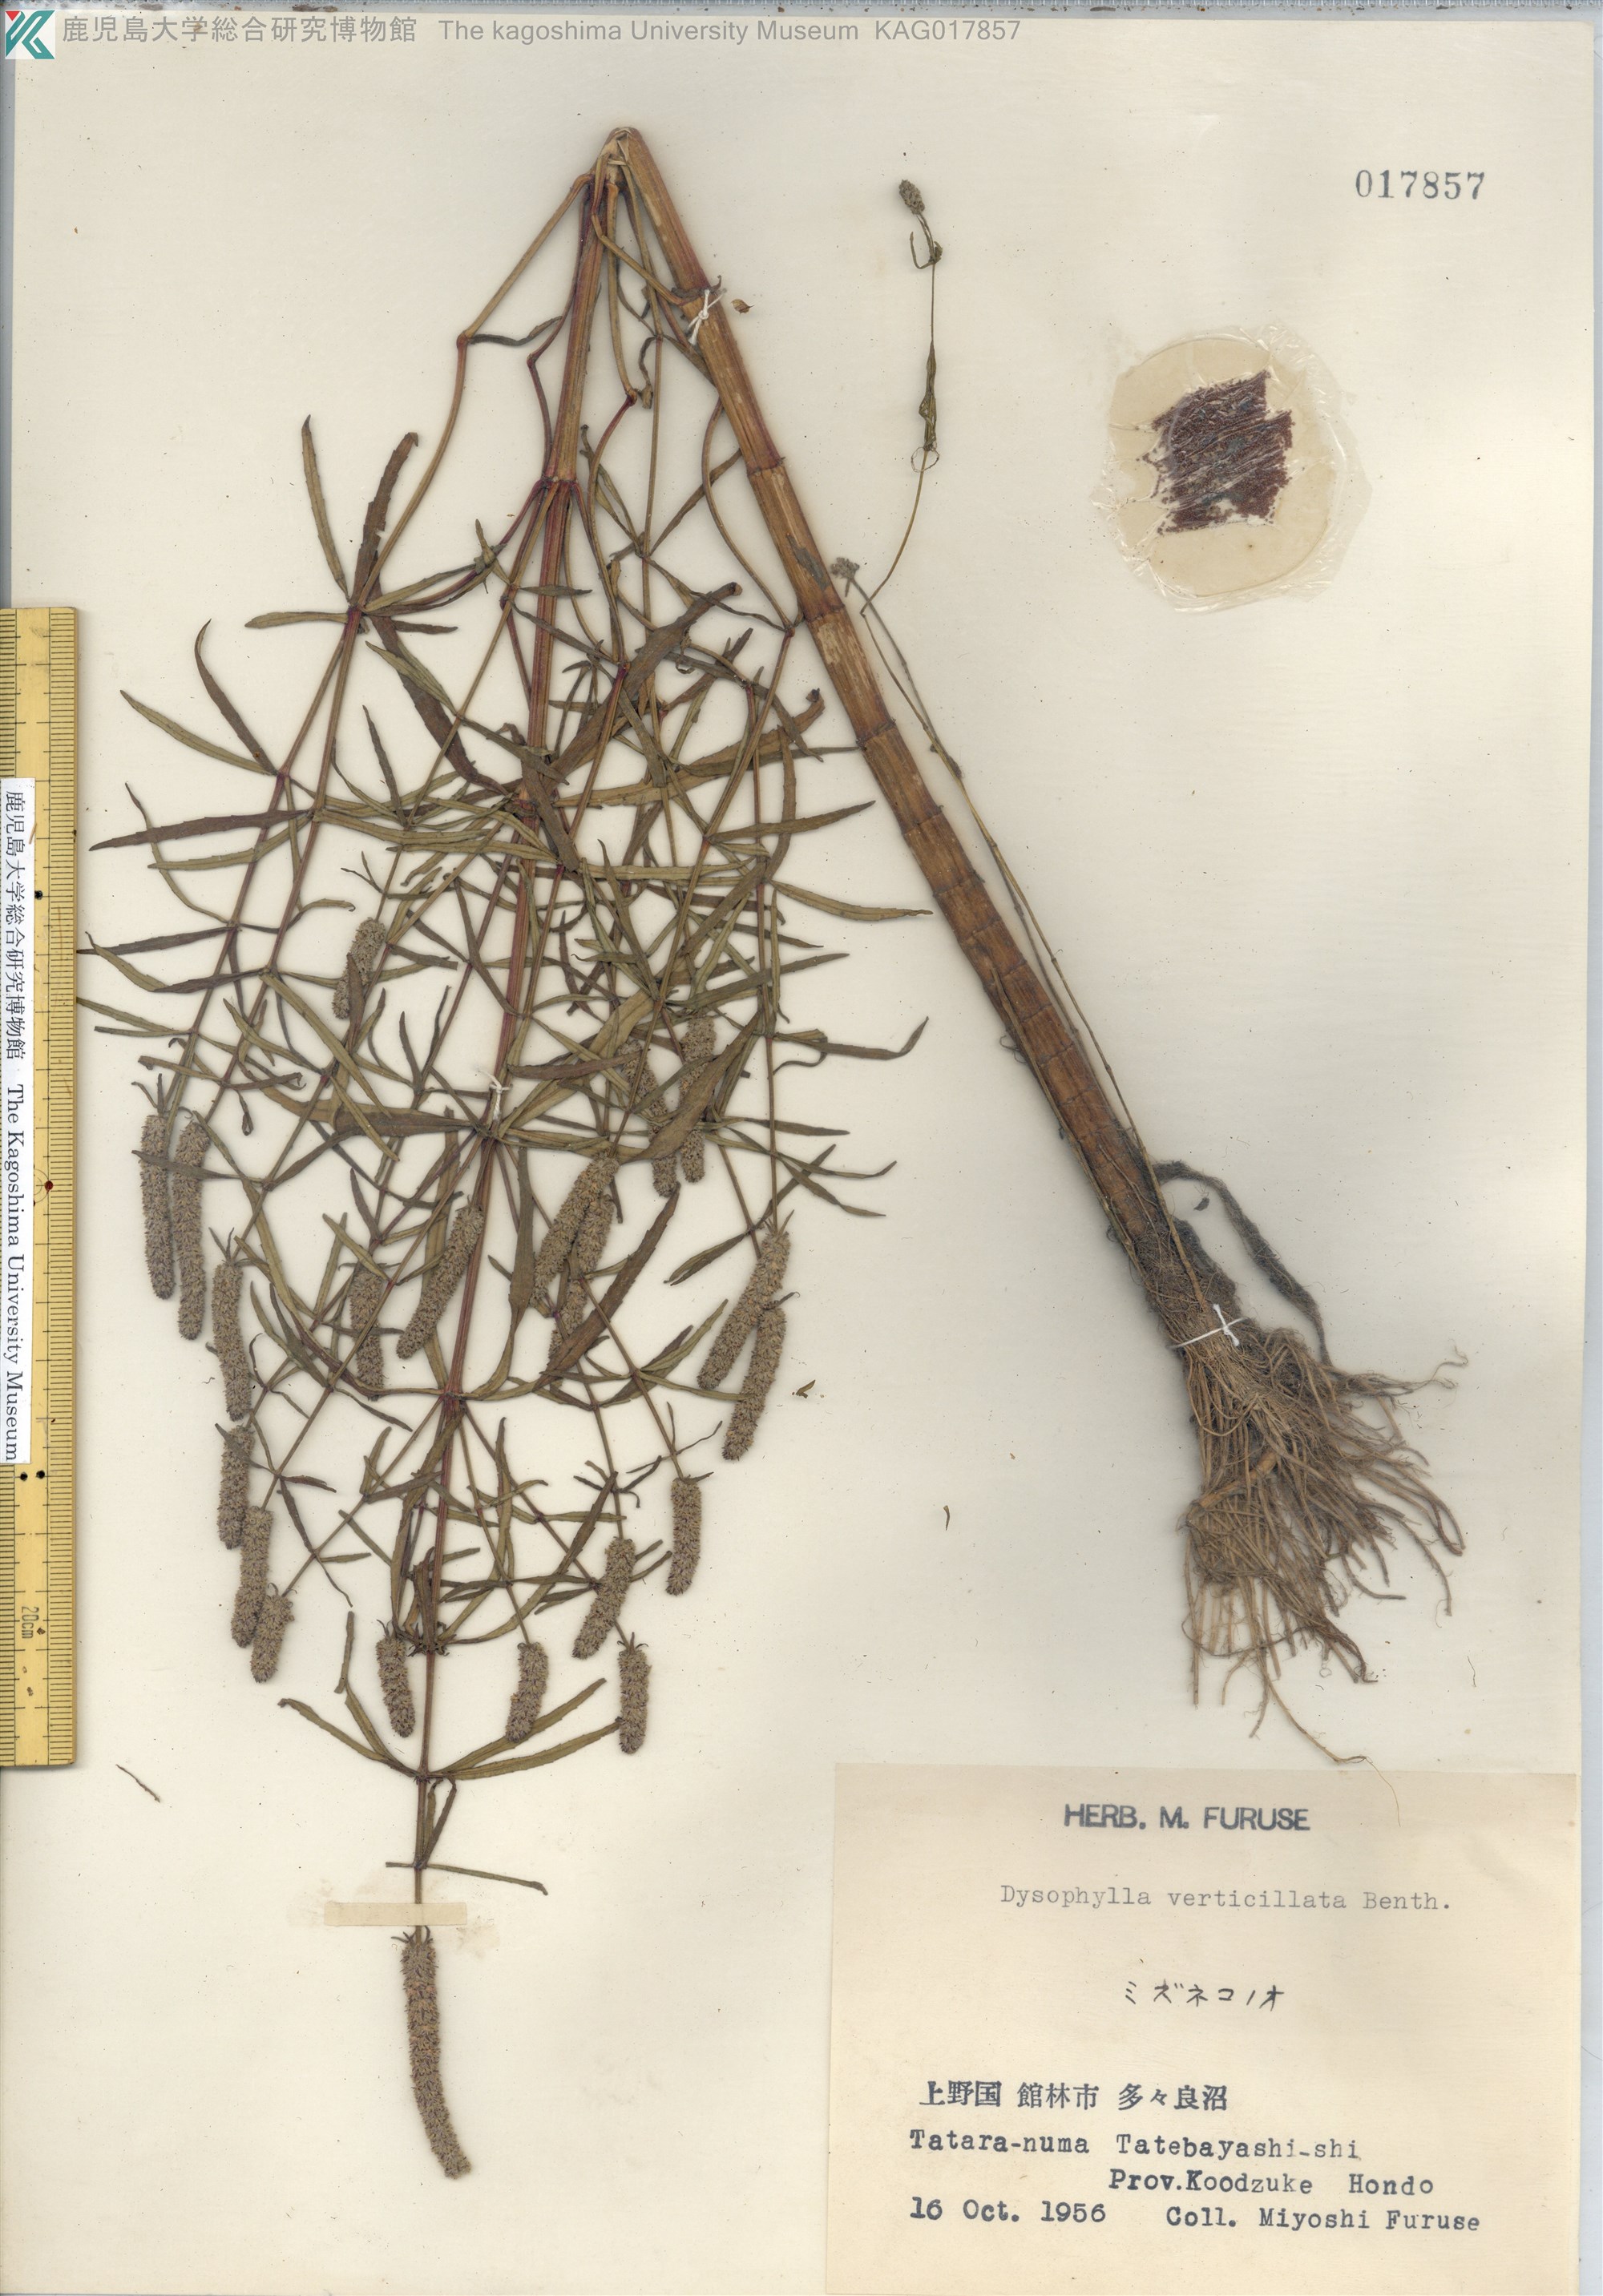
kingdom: Plantae
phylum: Tracheophyta
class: Magnoliopsida
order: Lamiales
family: Lamiaceae
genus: Pogostemon
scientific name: Pogostemon stellatus
